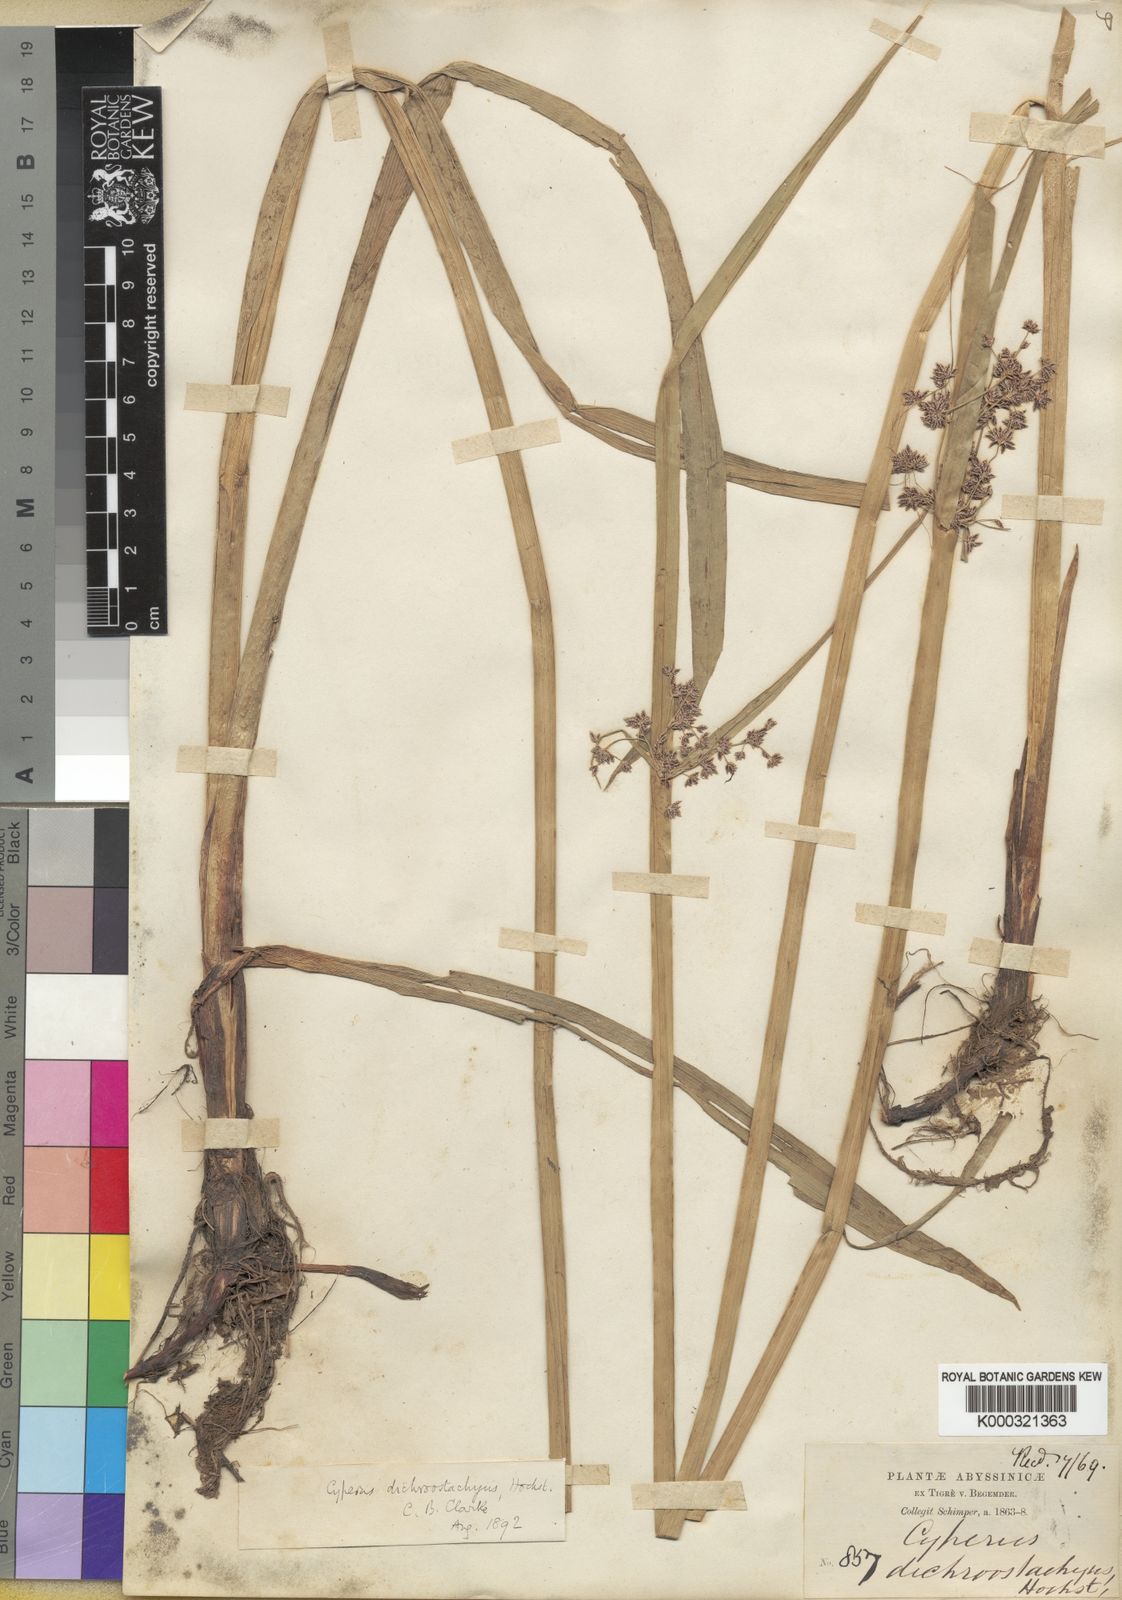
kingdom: Plantae
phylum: Tracheophyta
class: Liliopsida
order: Poales
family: Cyperaceae
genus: Cyperus
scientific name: Cyperus dichrostachyus
